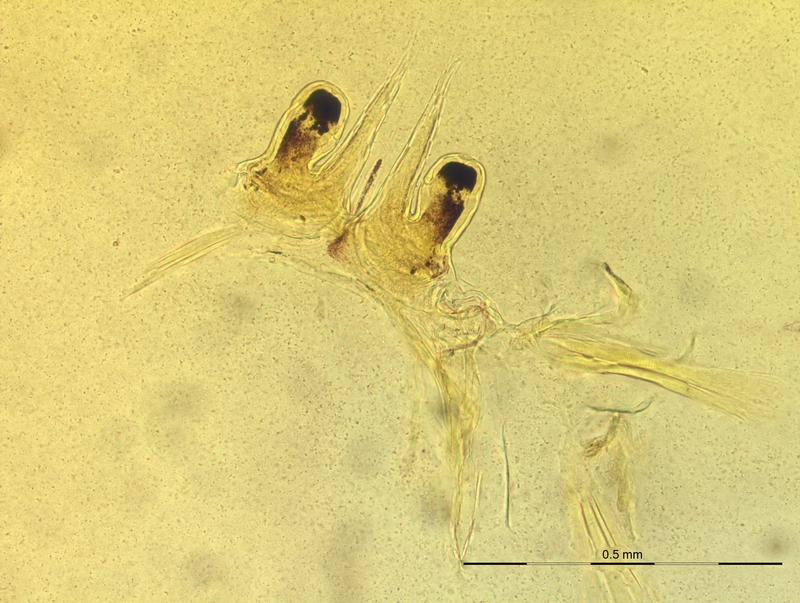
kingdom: Animalia
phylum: Arthropoda
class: Diplopoda
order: Chordeumatida
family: Craspedosomatidae
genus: Rhymogona
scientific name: Rhymogona montivaga
